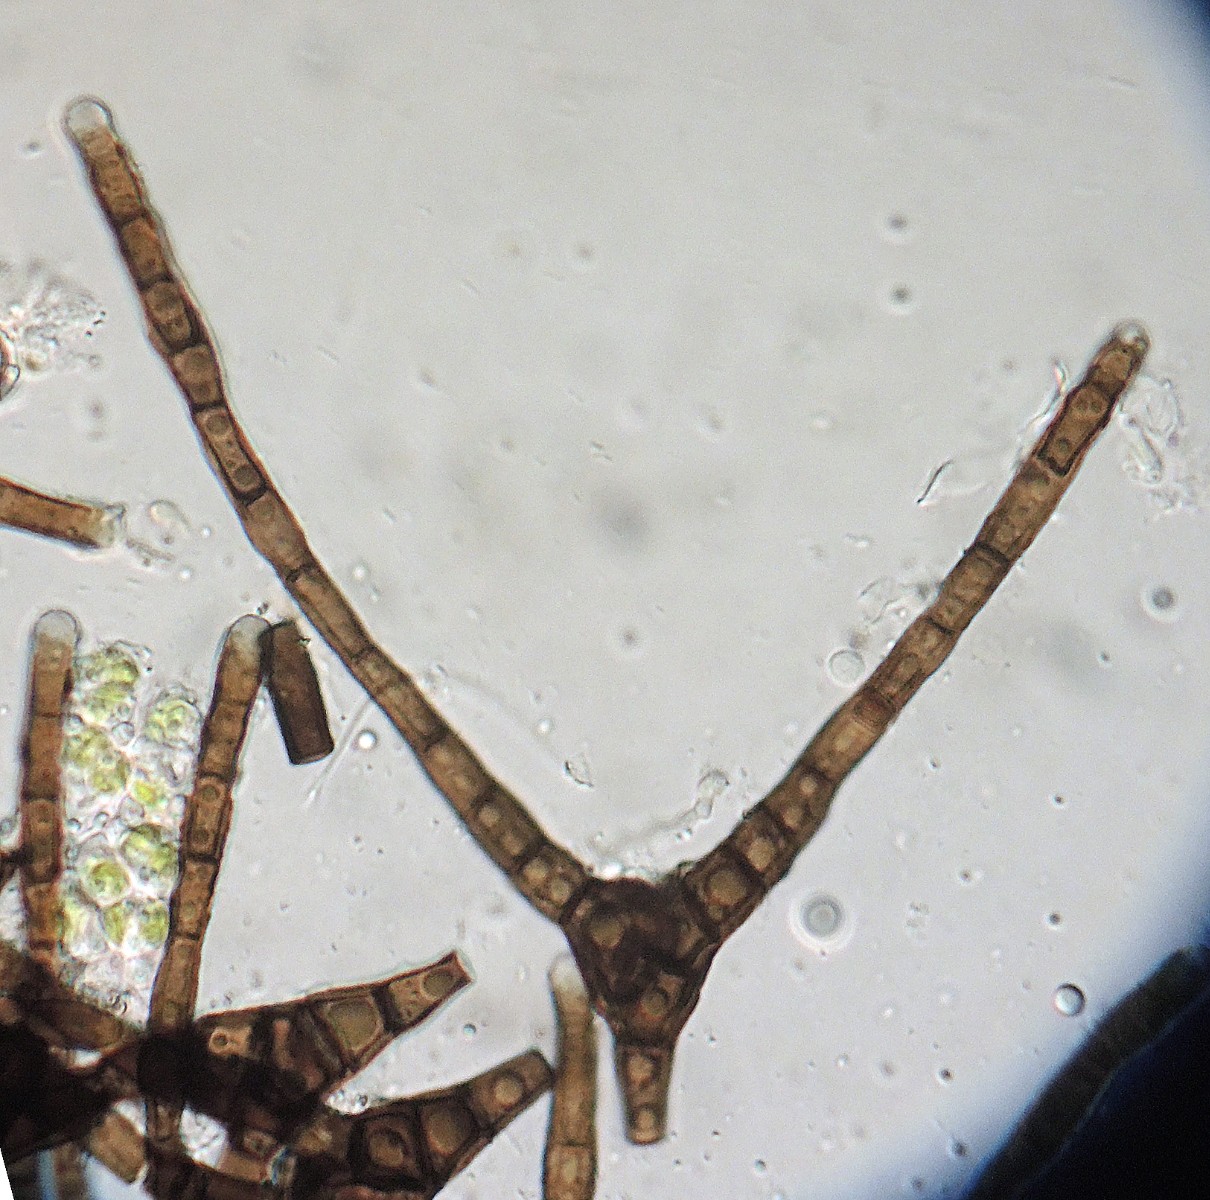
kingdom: Fungi
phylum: Ascomycota
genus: Actinocladium
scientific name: Actinocladium rhodosporum
